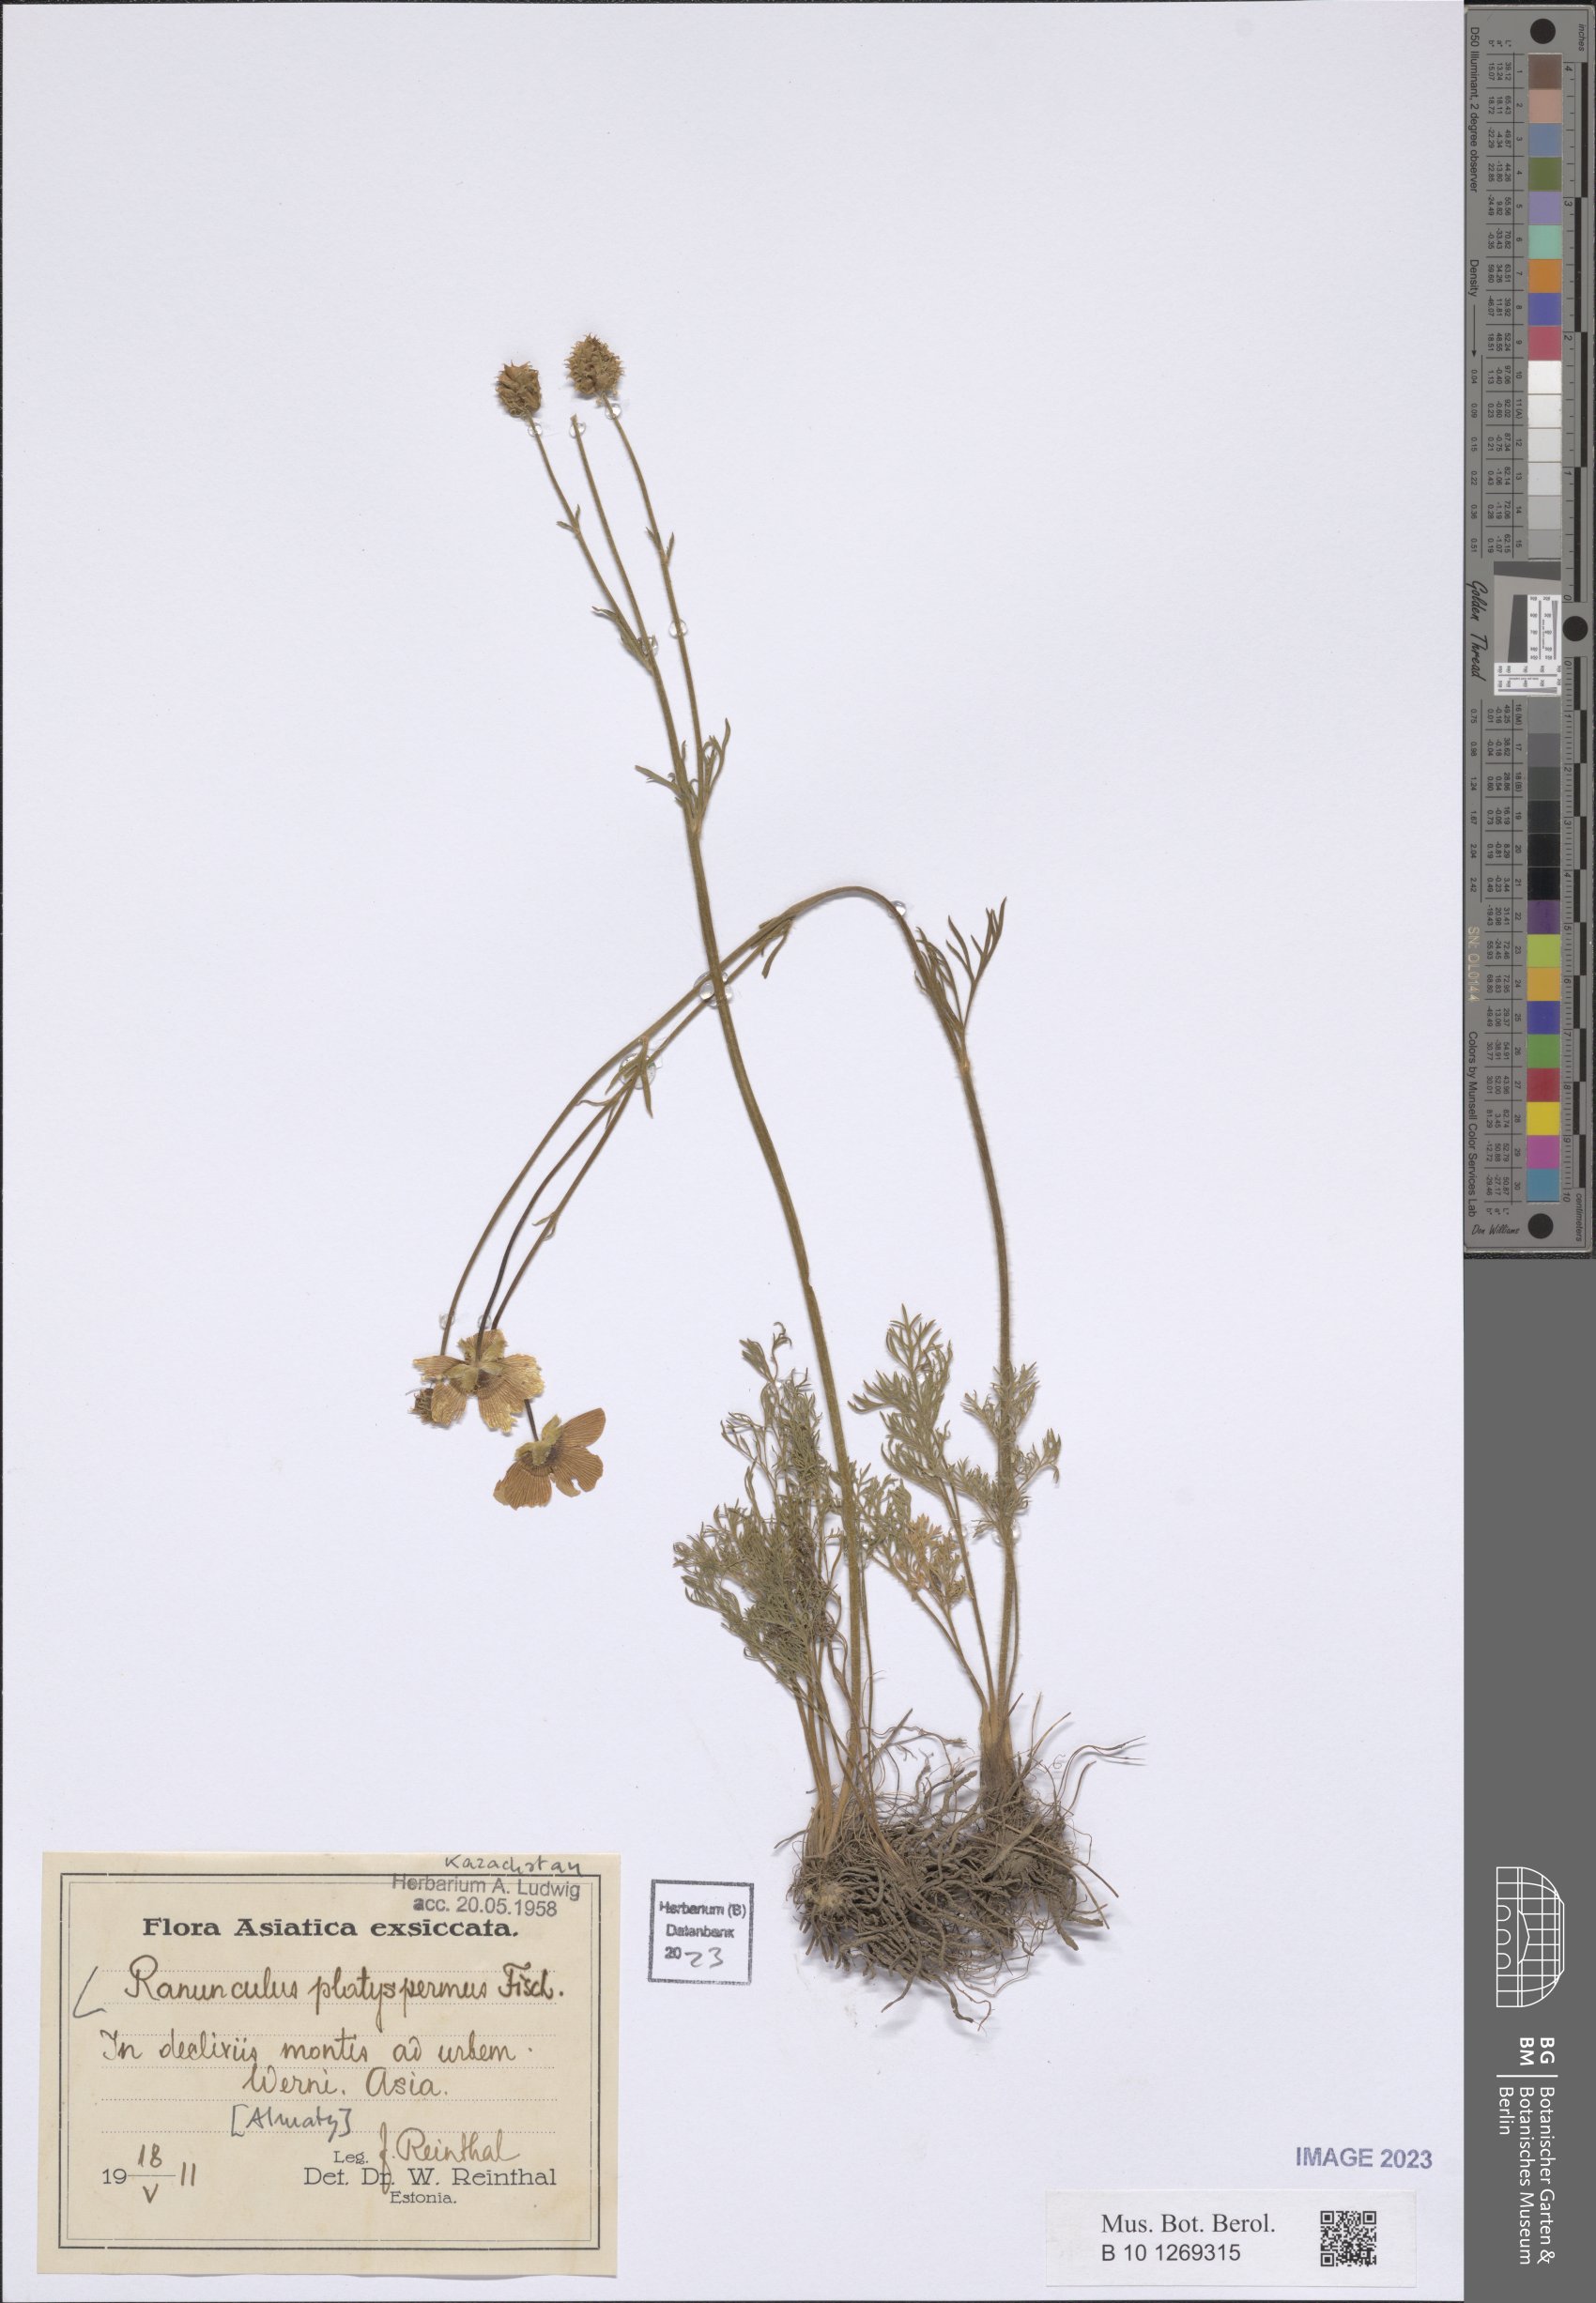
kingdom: Plantae
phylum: Tracheophyta
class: Magnoliopsida
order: Ranunculales
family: Ranunculaceae
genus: Ranunculus
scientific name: Ranunculus platyspermus
